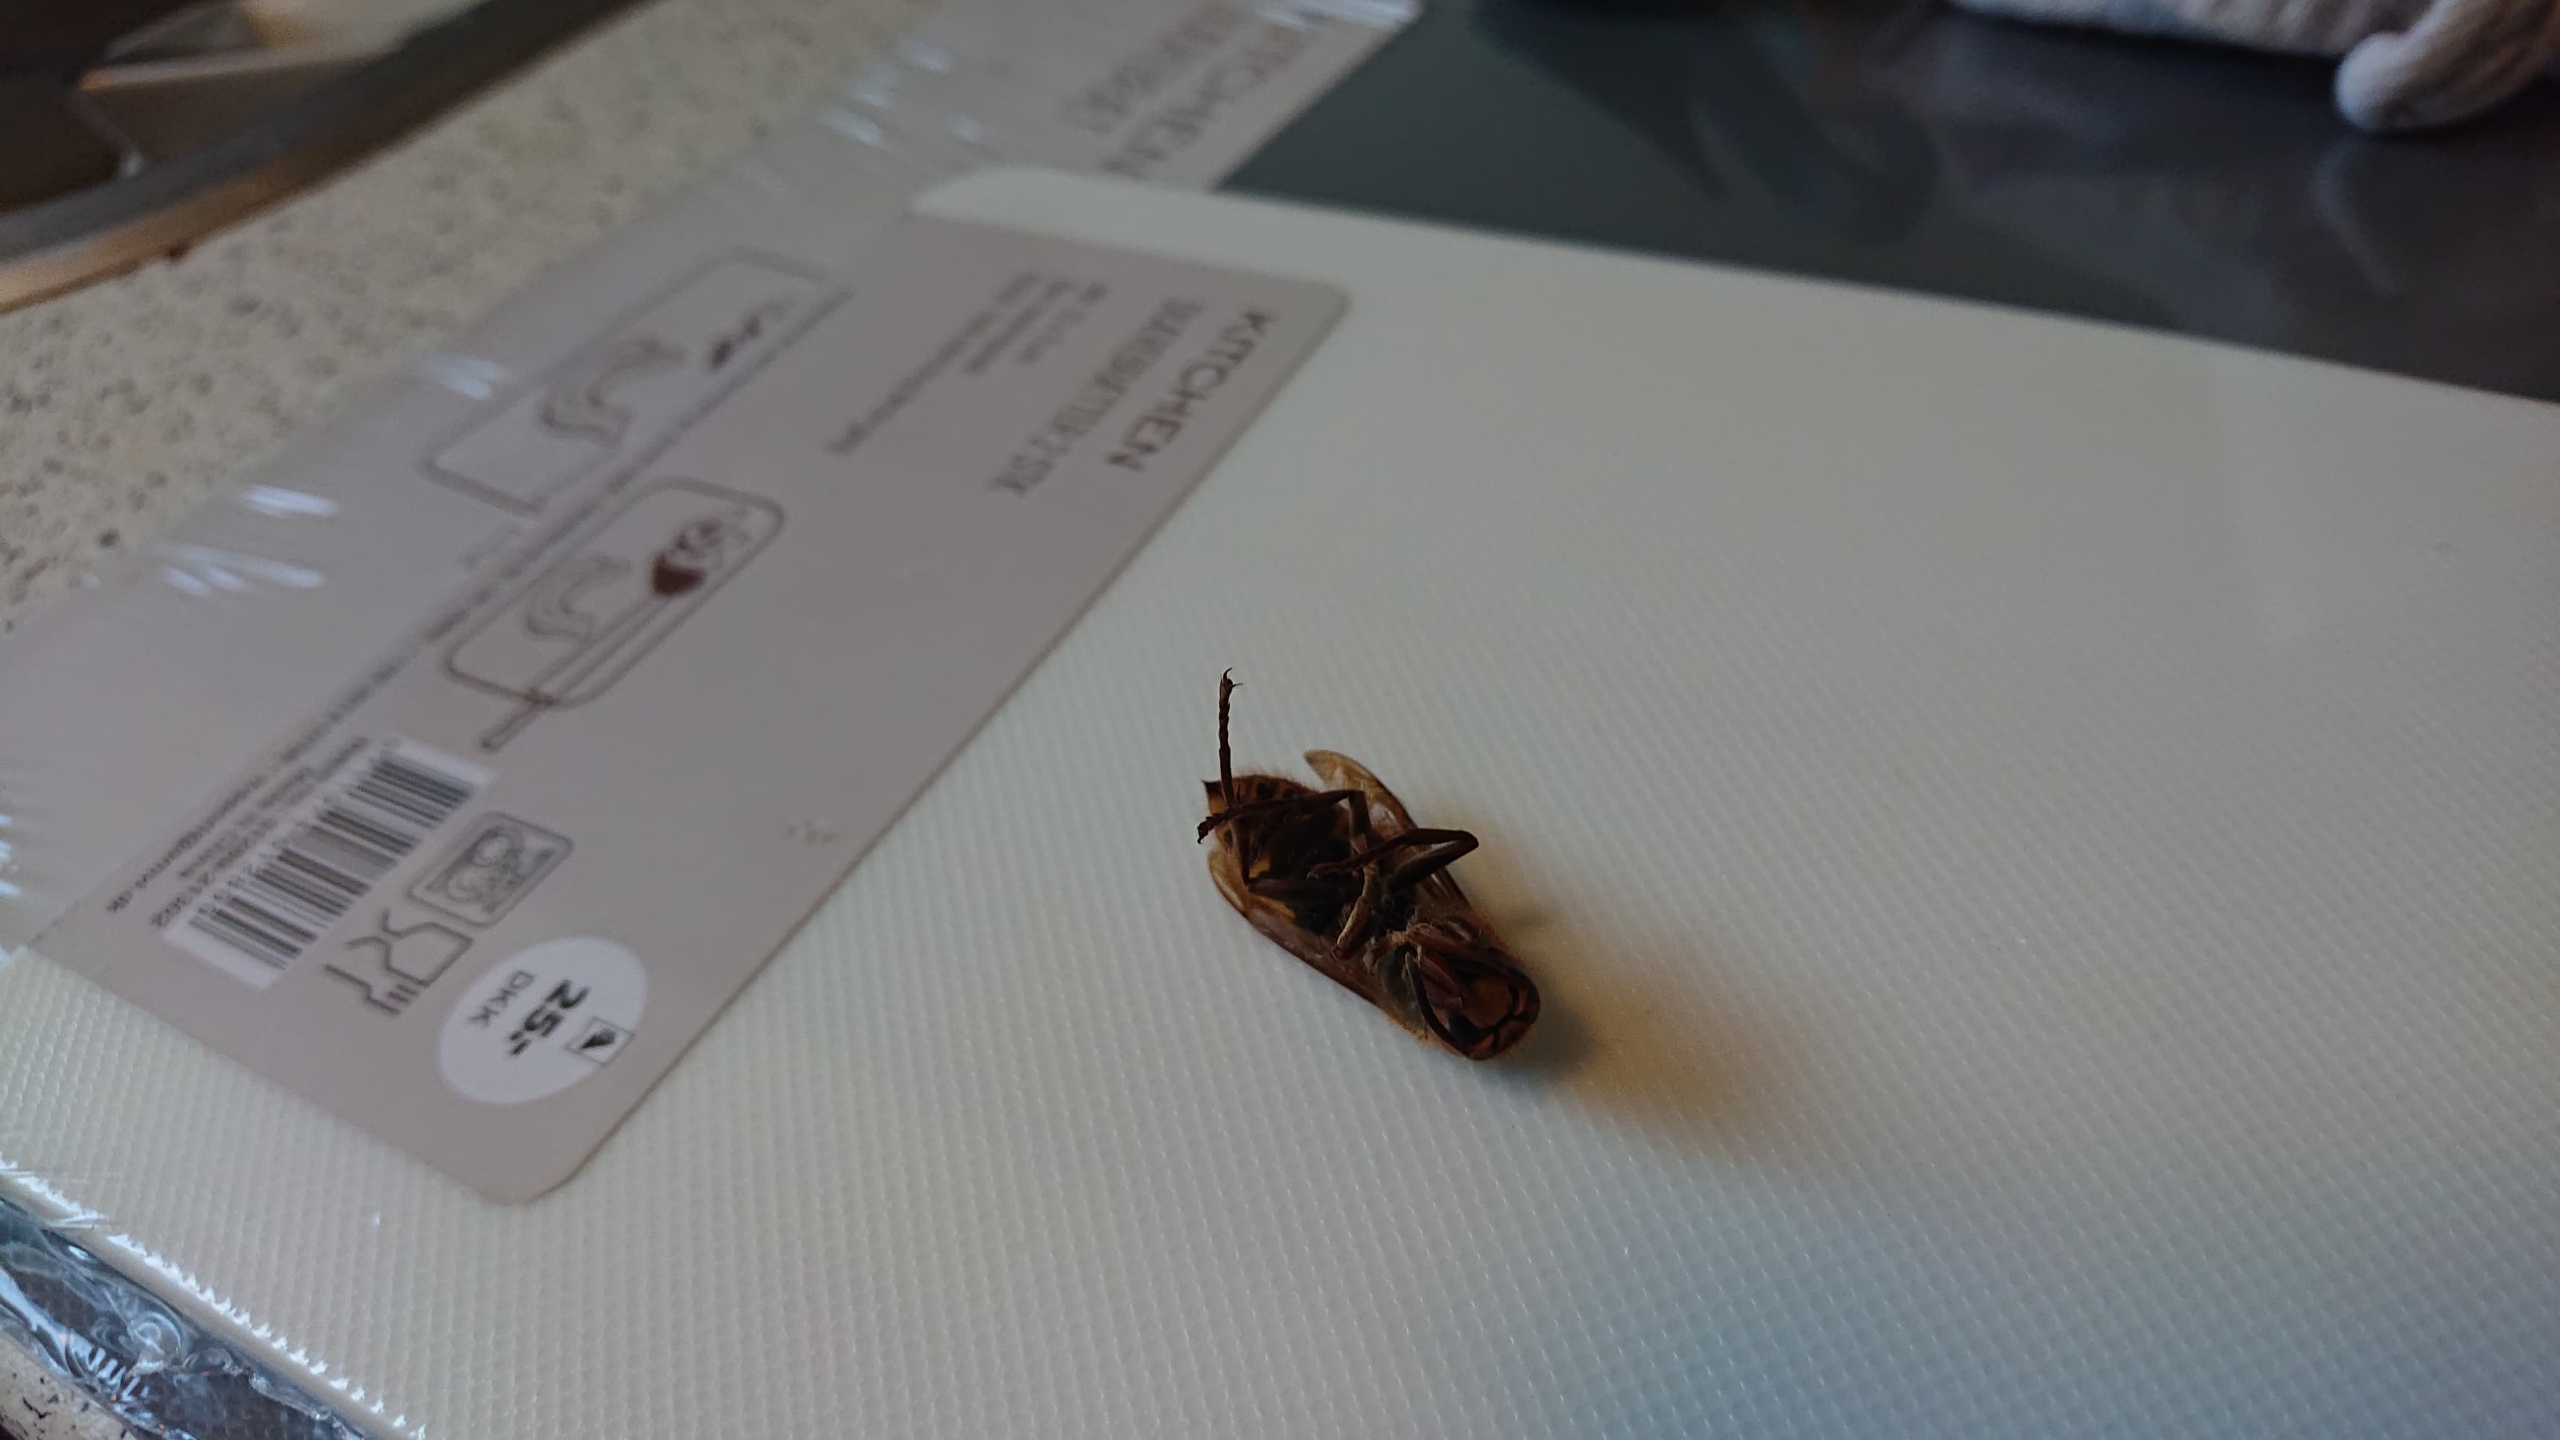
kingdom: Animalia
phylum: Arthropoda
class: Insecta
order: Hymenoptera
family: Vespidae
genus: Vespa
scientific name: Vespa crabro
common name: Stor gedehams
